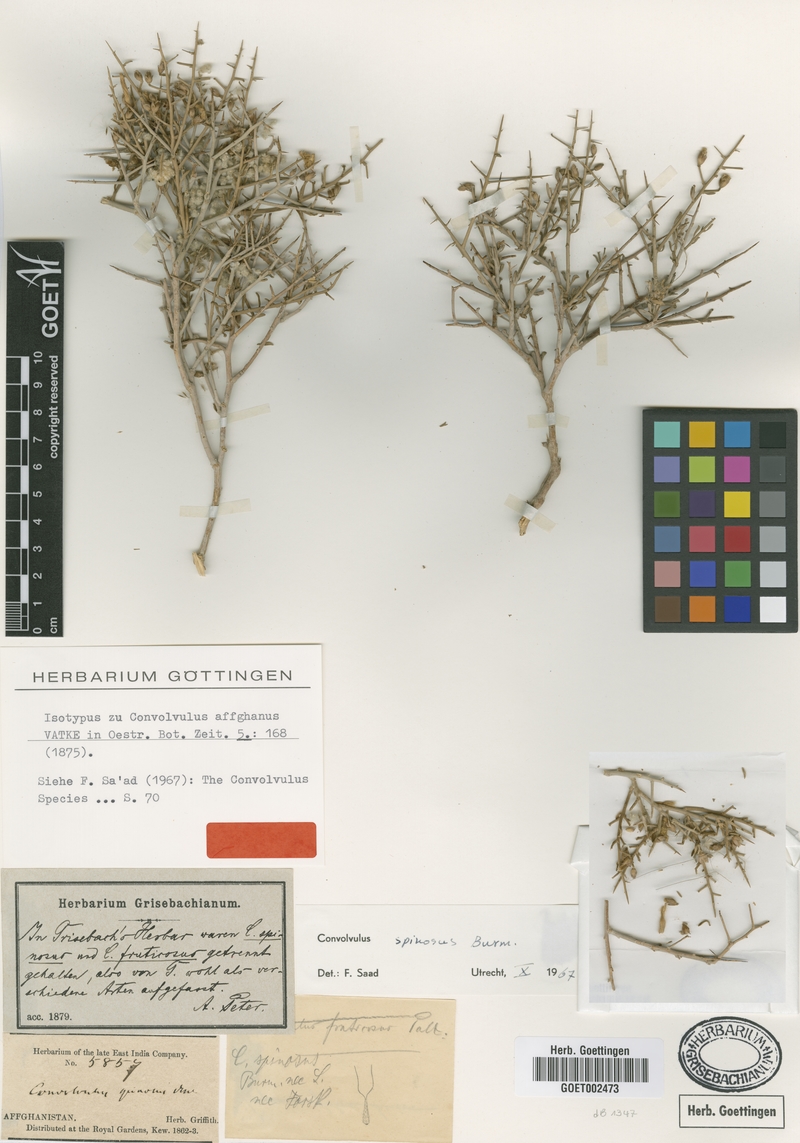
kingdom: Plantae
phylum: Tracheophyta
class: Magnoliopsida
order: Solanales
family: Convolvulaceae
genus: Convolvulus
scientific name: Convolvulus spinosus
